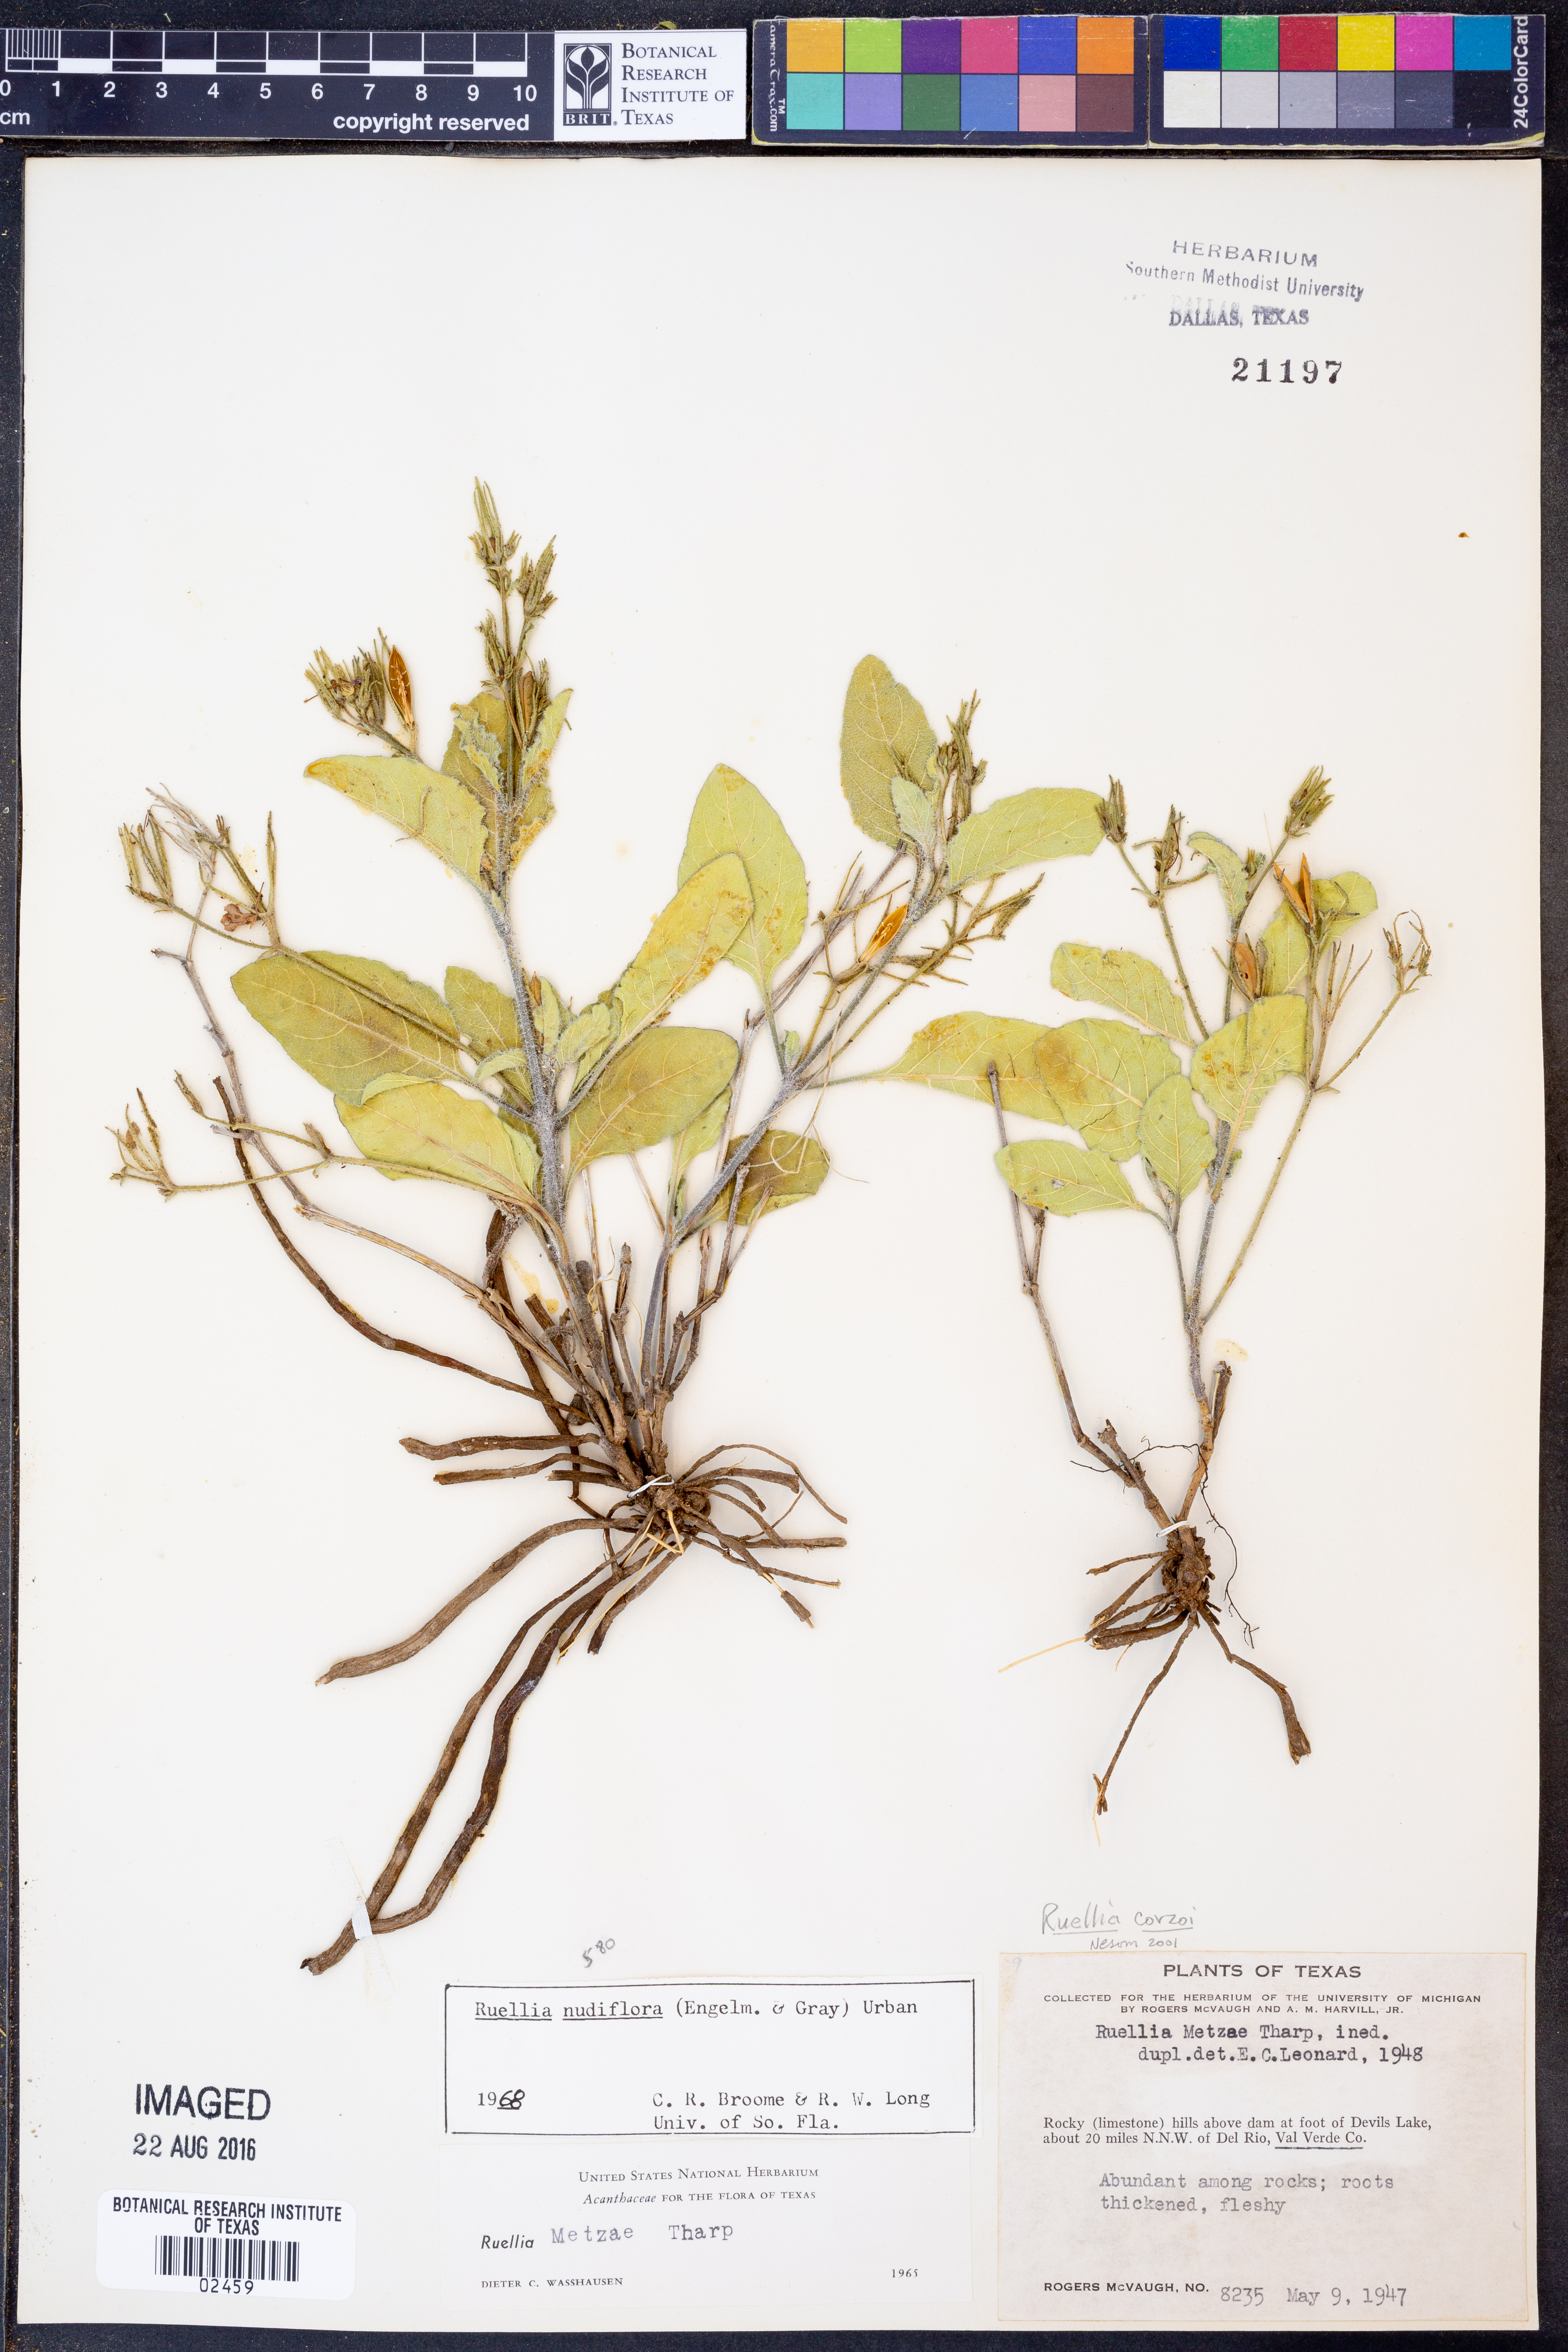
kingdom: Plantae
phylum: Tracheophyta
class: Magnoliopsida
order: Lamiales
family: Acanthaceae
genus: Ruellia
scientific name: Ruellia corzoi
